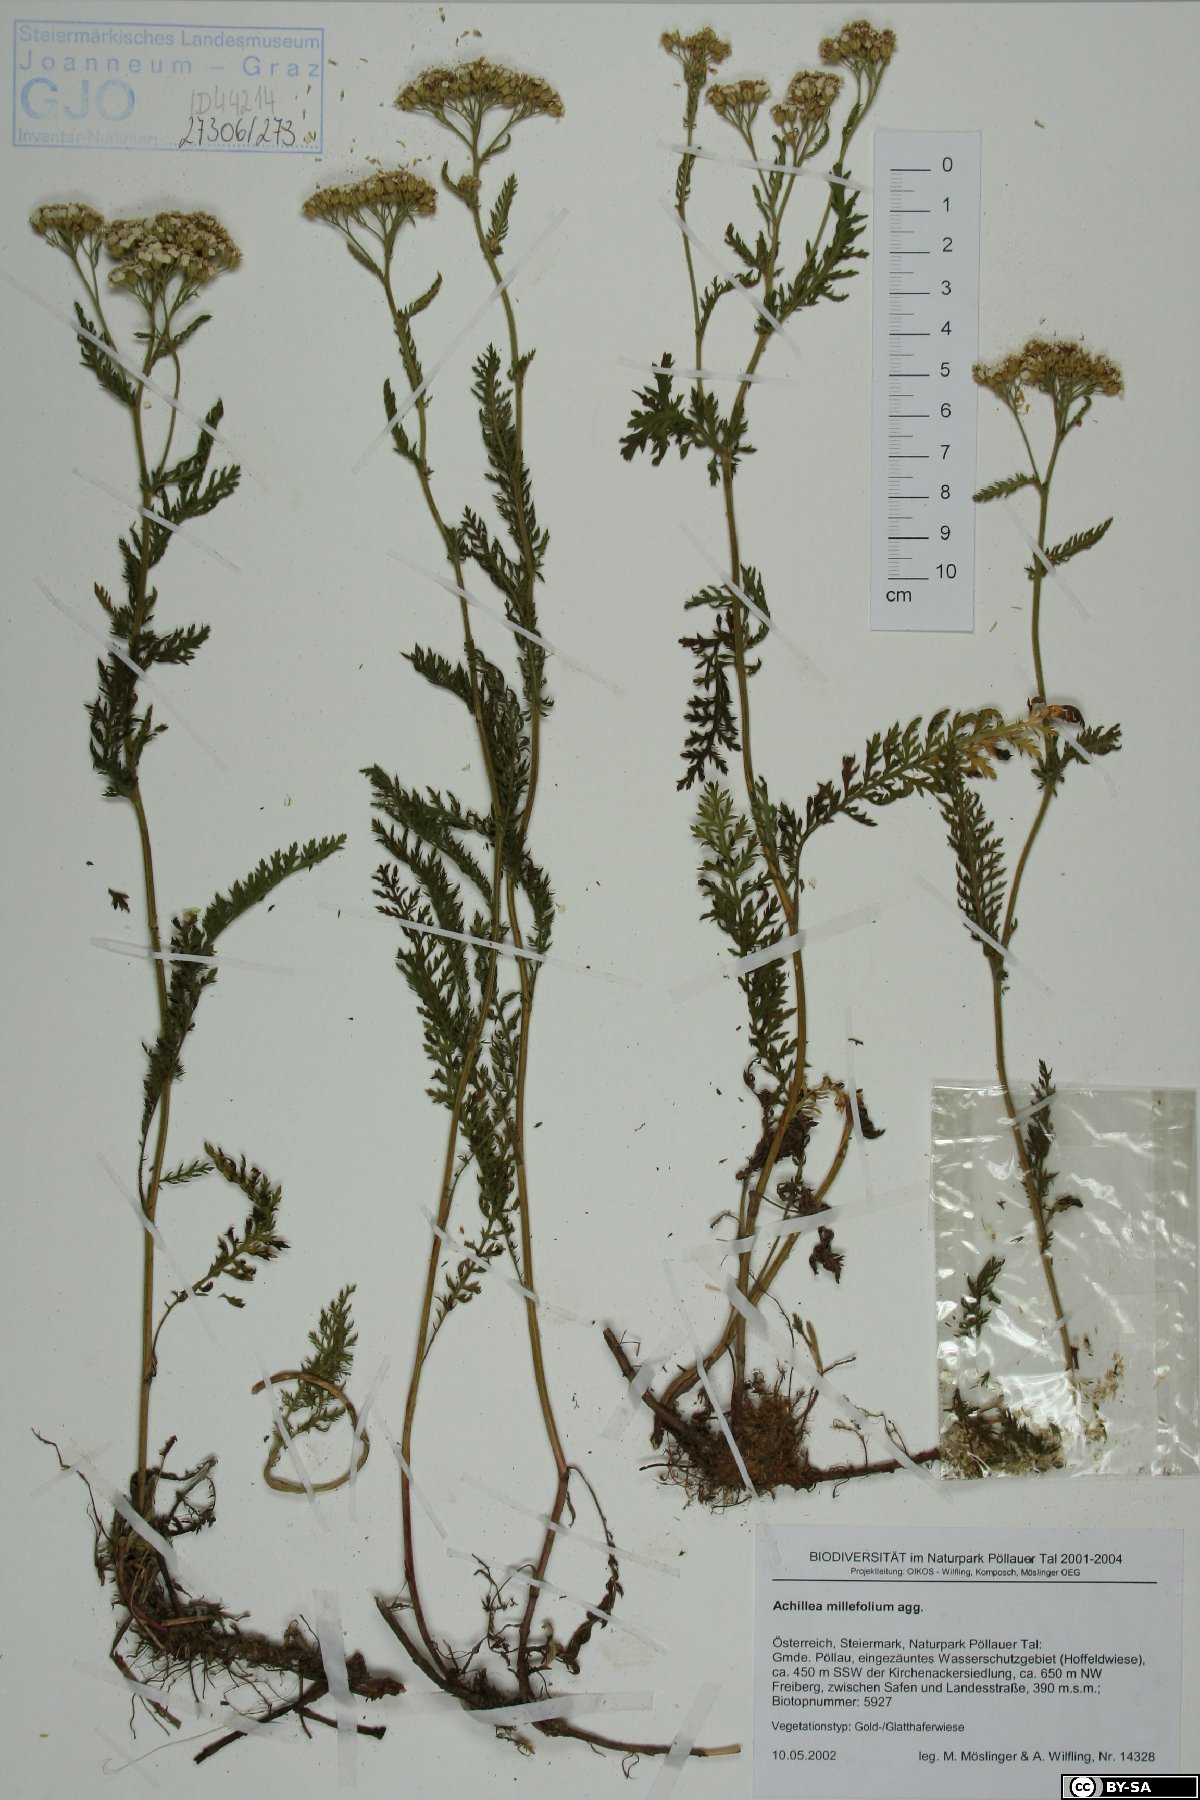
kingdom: Plantae
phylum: Tracheophyta
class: Magnoliopsida
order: Asterales
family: Asteraceae
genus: Achillea
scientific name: Achillea millefolium
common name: Yarrow
